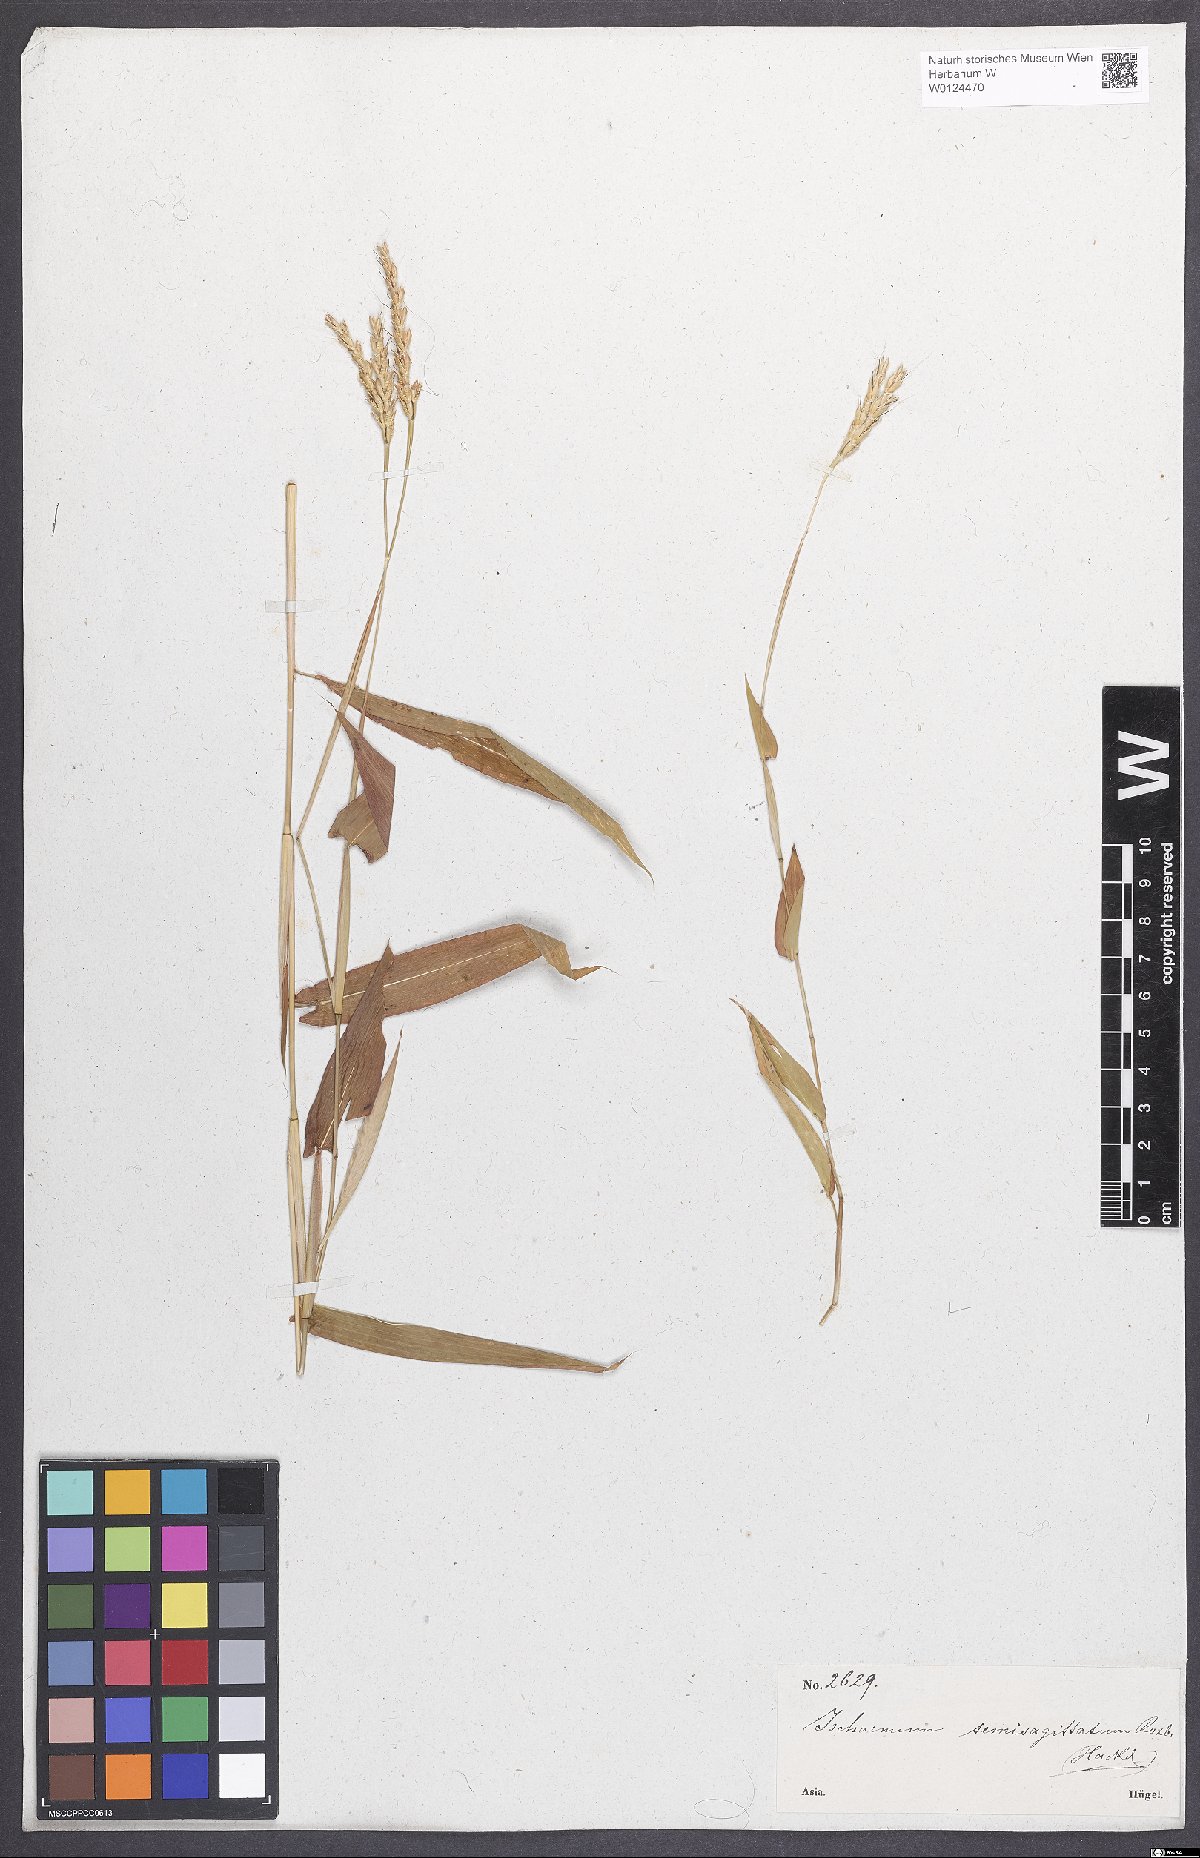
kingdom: Plantae
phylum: Tracheophyta
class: Liliopsida
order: Poales
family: Poaceae
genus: Ischaemum
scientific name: Ischaemum semisagittatum
